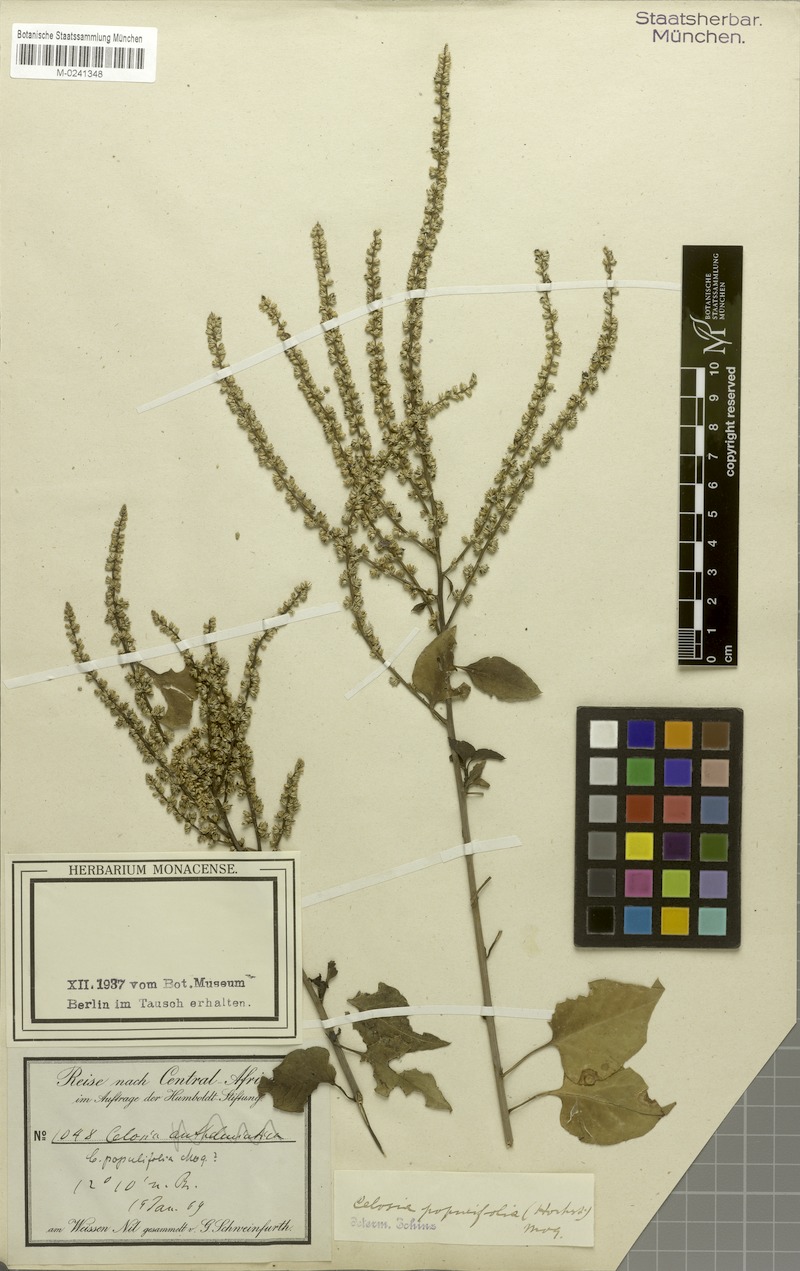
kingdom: Plantae
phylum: Tracheophyta
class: Magnoliopsida
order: Caryophyllales
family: Amaranthaceae
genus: Celosia
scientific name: Celosia polystachya
